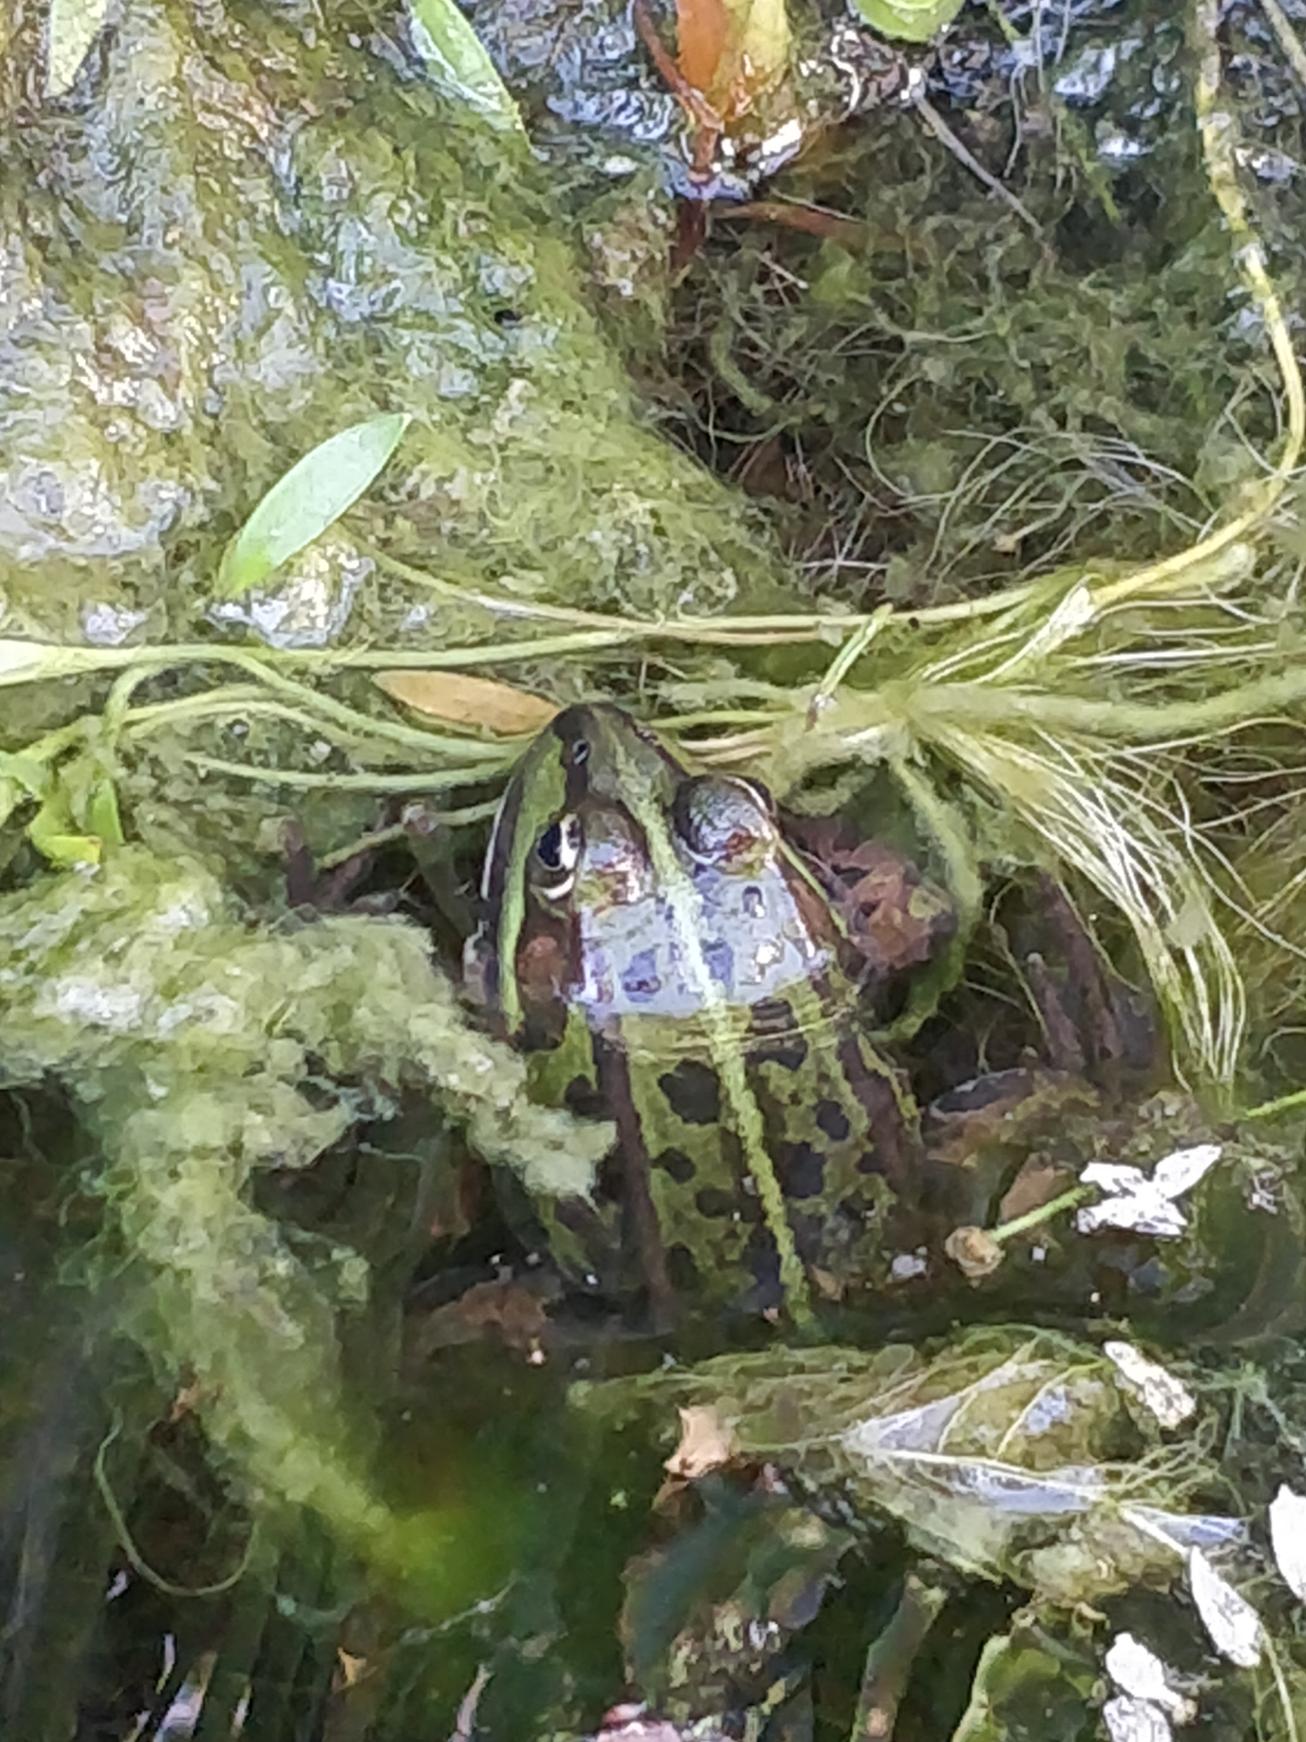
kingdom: Animalia
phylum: Chordata
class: Amphibia
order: Anura
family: Ranidae
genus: Pelophylax
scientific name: Pelophylax lessonae
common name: Grøn frø
